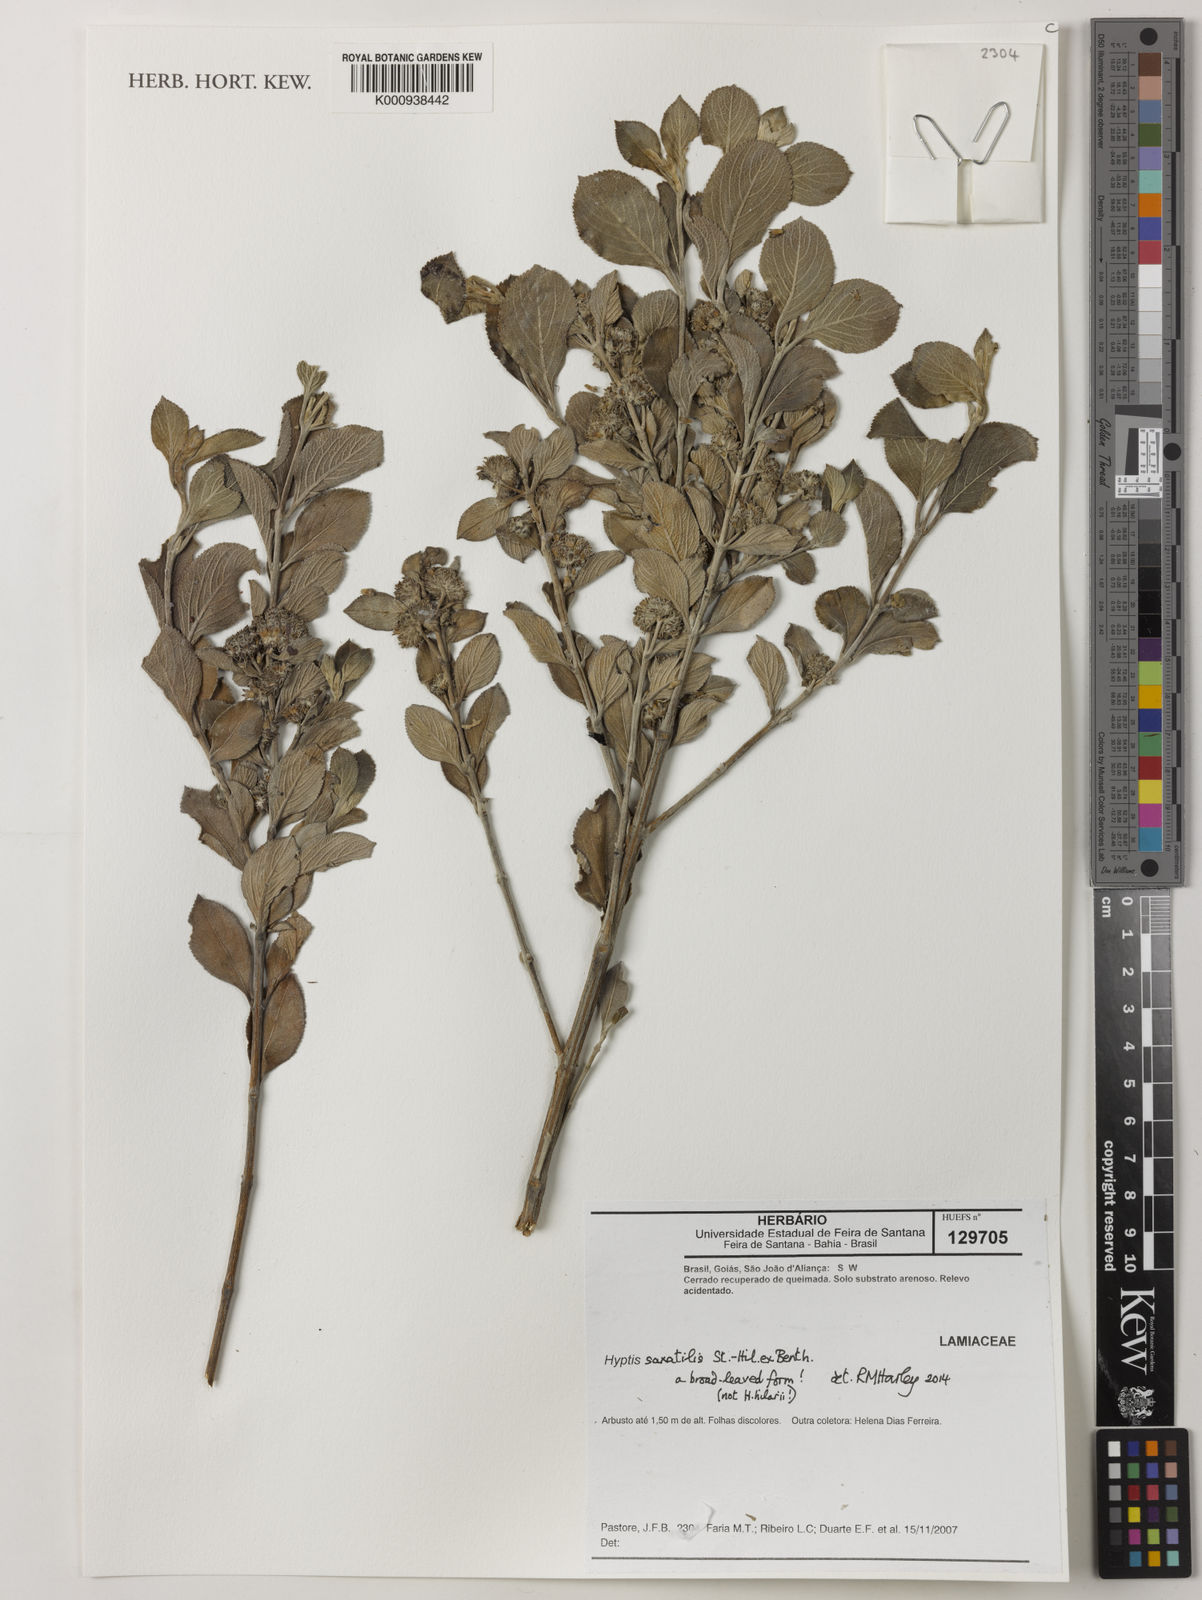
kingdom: Plantae
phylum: Tracheophyta
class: Magnoliopsida
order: Lamiales
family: Lamiaceae
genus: Hyptis
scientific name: Hyptis saxatilis
